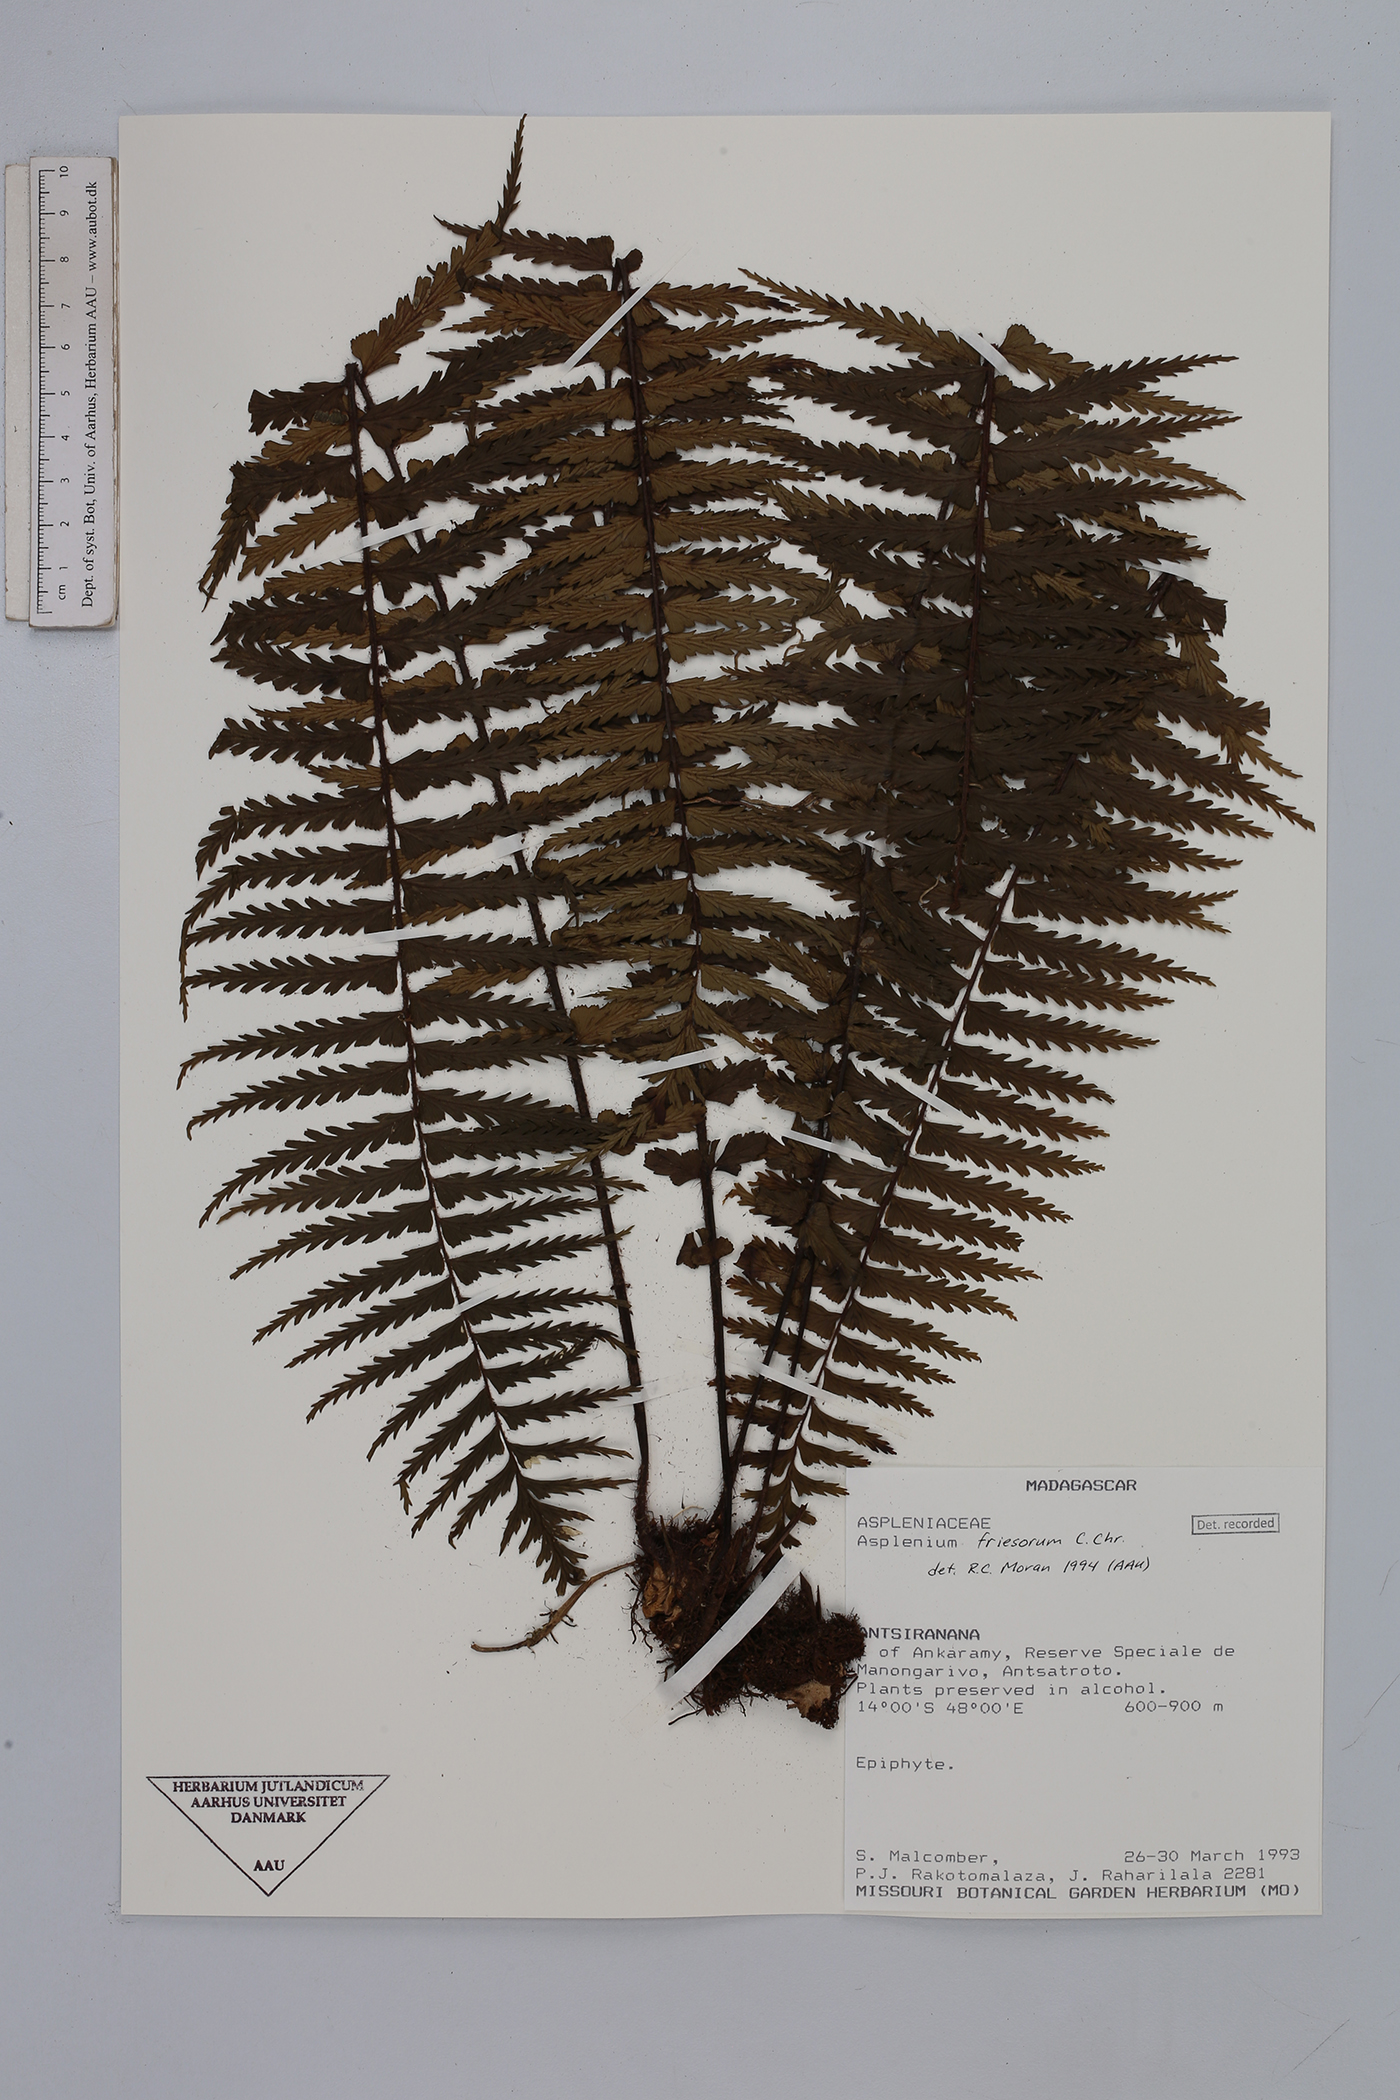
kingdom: Plantae
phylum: Tracheophyta
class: Polypodiopsida
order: Polypodiales
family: Aspleniaceae
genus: Asplenium
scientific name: Asplenium gueinzianum
